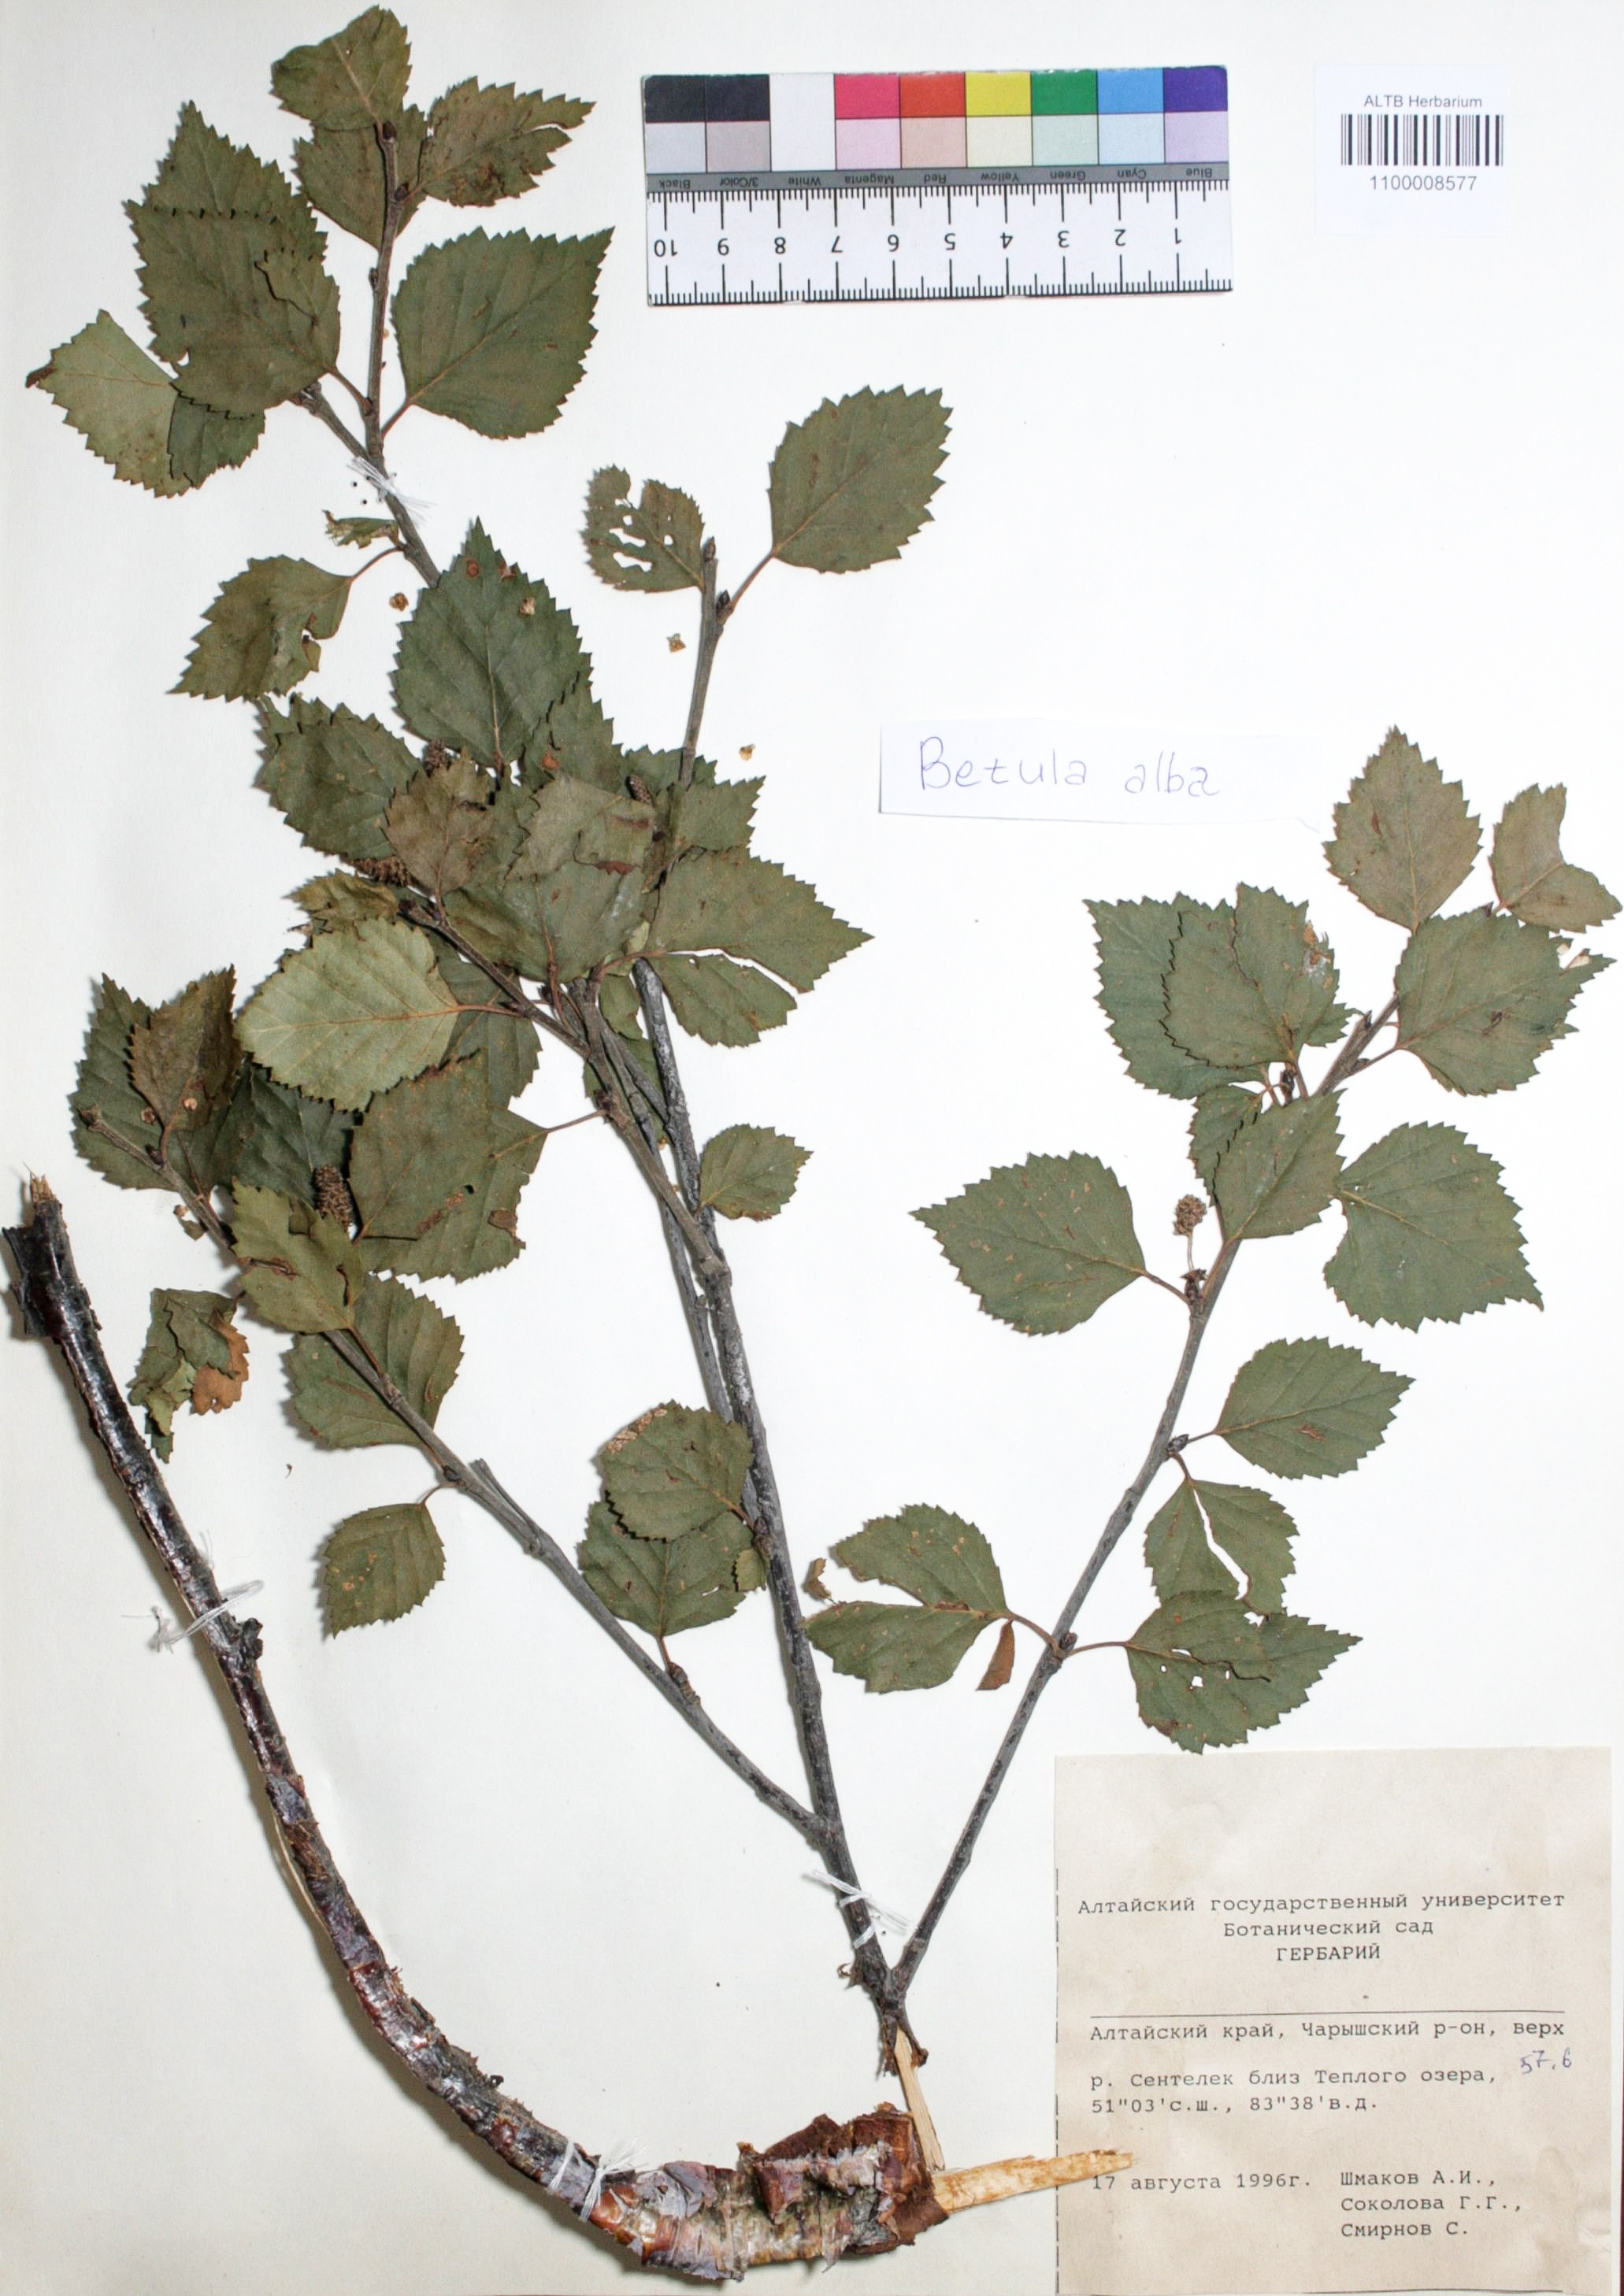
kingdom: Plantae
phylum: Tracheophyta
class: Magnoliopsida
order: Fagales
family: Betulaceae
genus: Betula
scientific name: Betula pubescens
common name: Downy birch
